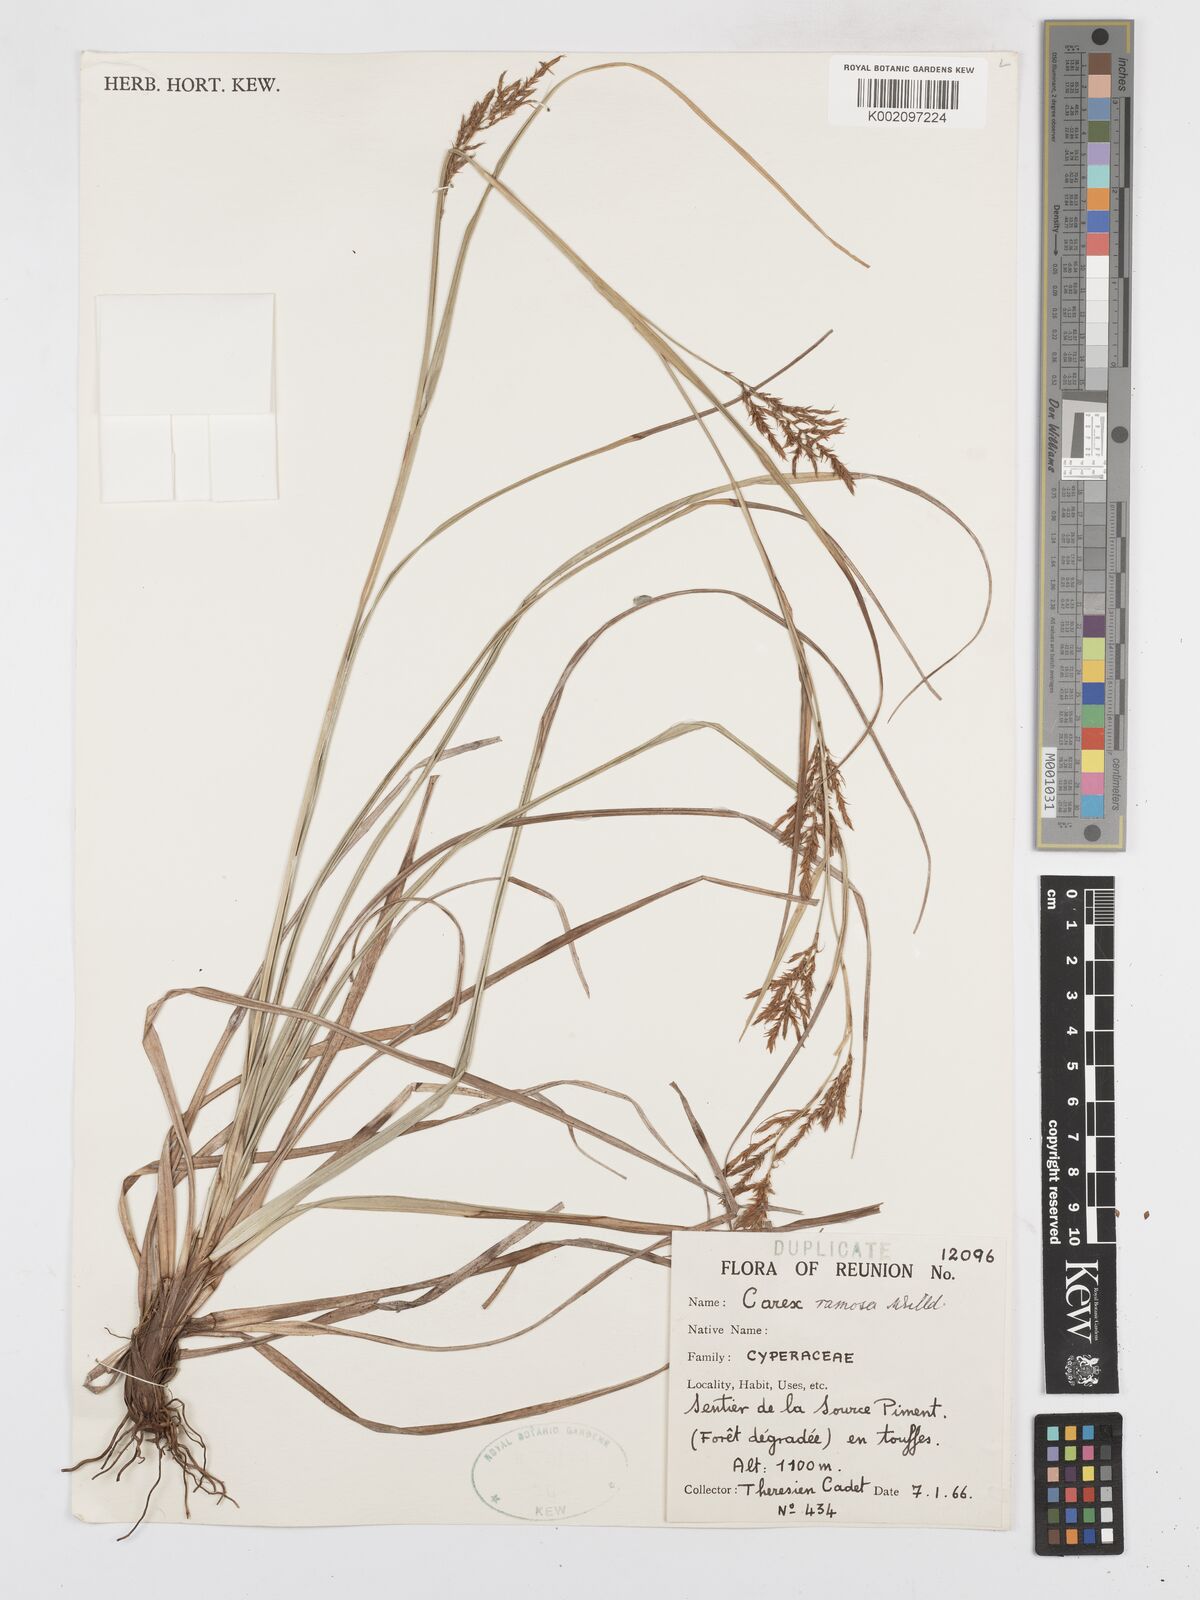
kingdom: Plantae
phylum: Tracheophyta
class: Liliopsida
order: Poales
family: Cyperaceae
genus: Carex
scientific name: Carex ramosa
